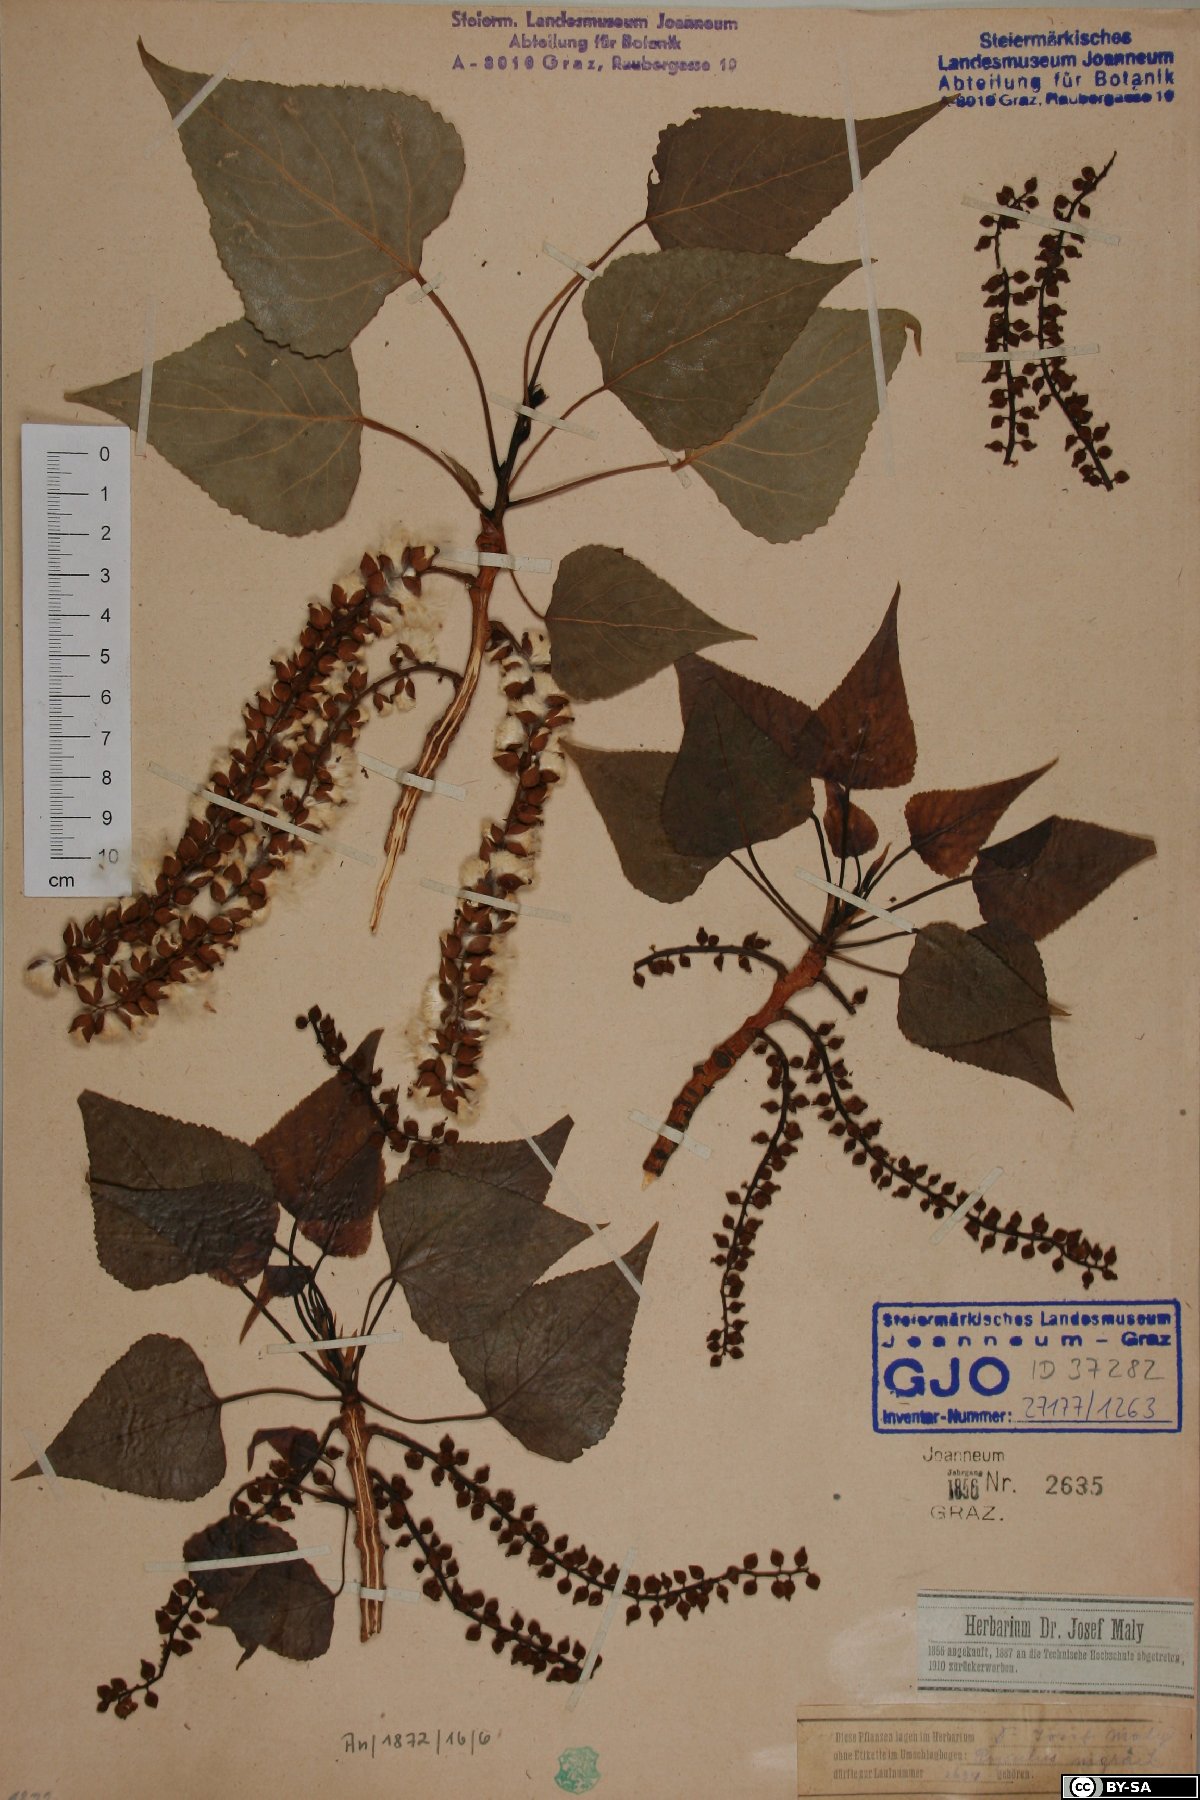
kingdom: Plantae
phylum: Tracheophyta
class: Magnoliopsida
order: Malpighiales
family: Salicaceae
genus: Populus
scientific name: Populus nigra
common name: Black poplar
